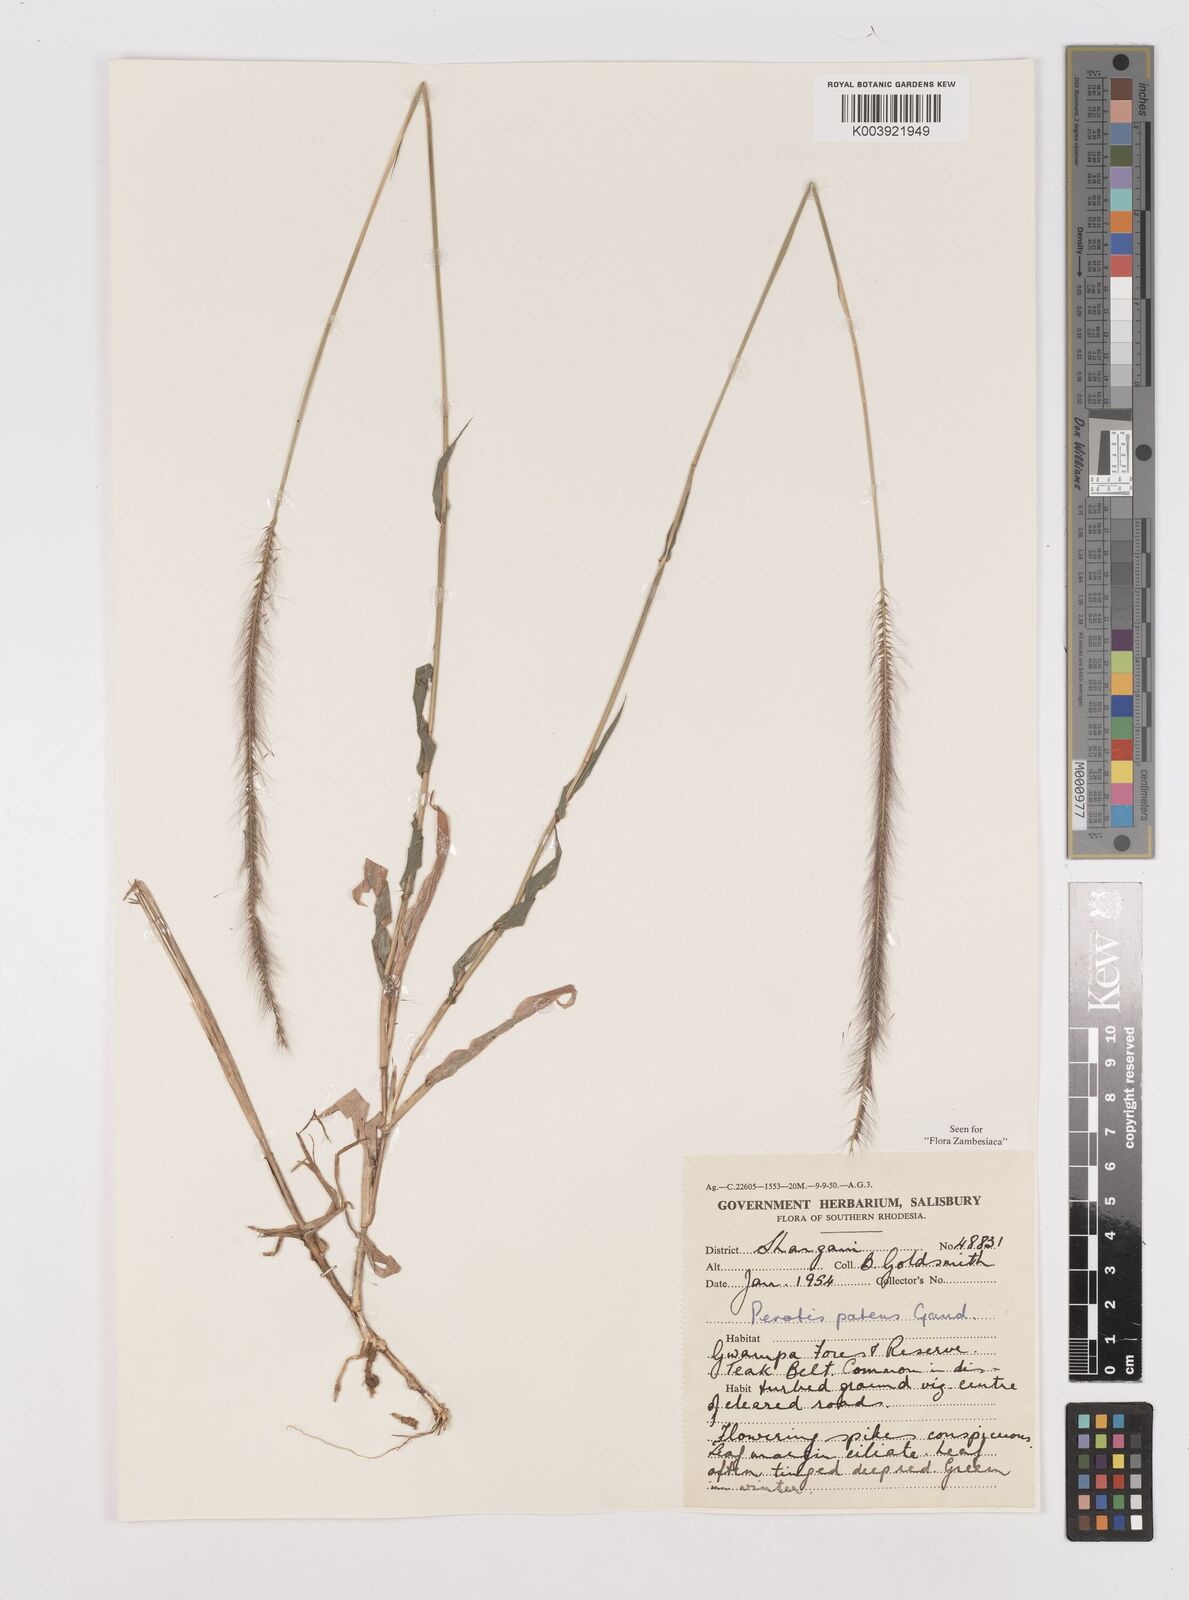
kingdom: Plantae
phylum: Tracheophyta
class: Liliopsida
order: Poales
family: Poaceae
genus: Perotis
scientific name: Perotis patens
